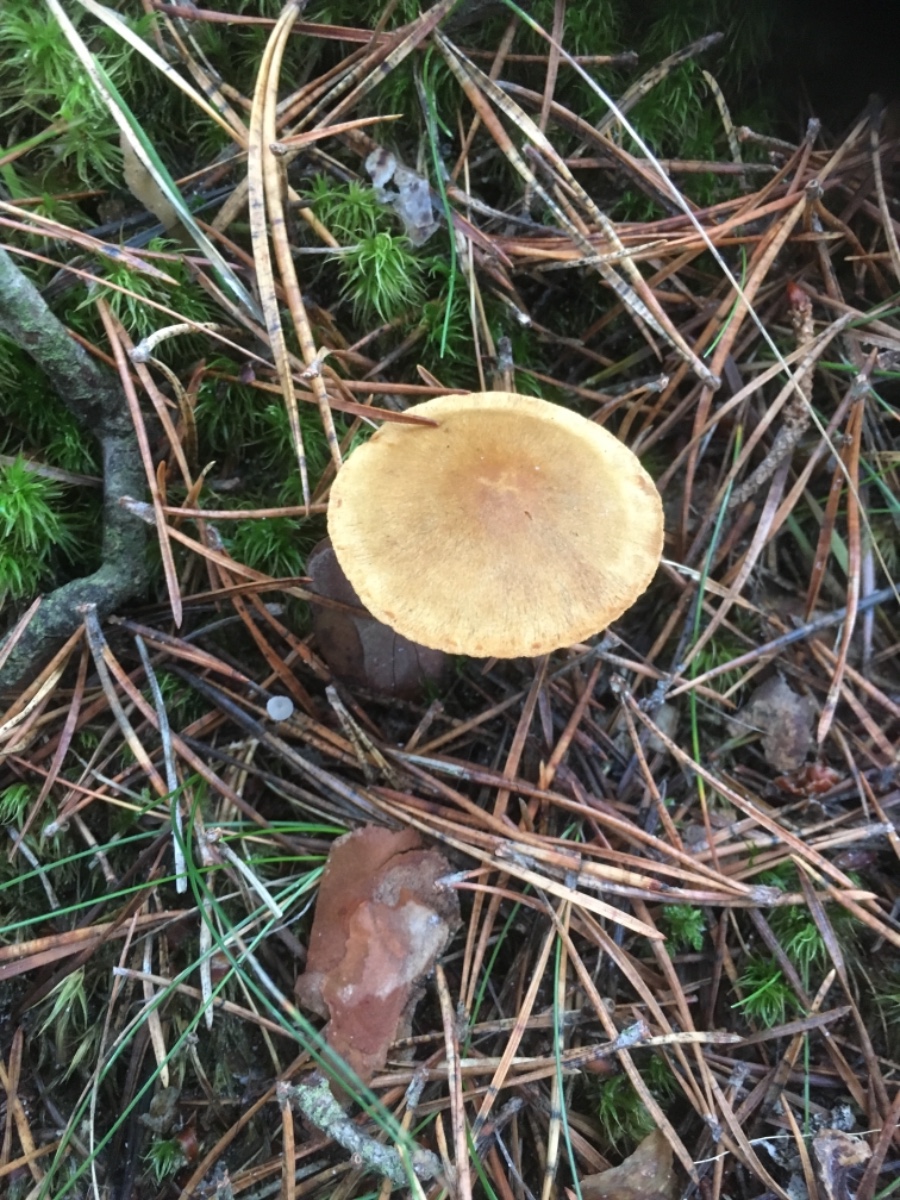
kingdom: Fungi
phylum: Basidiomycota
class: Agaricomycetes
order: Agaricales
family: Cortinariaceae
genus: Cortinarius
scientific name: Cortinarius
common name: cinnoberbladet slørhat
